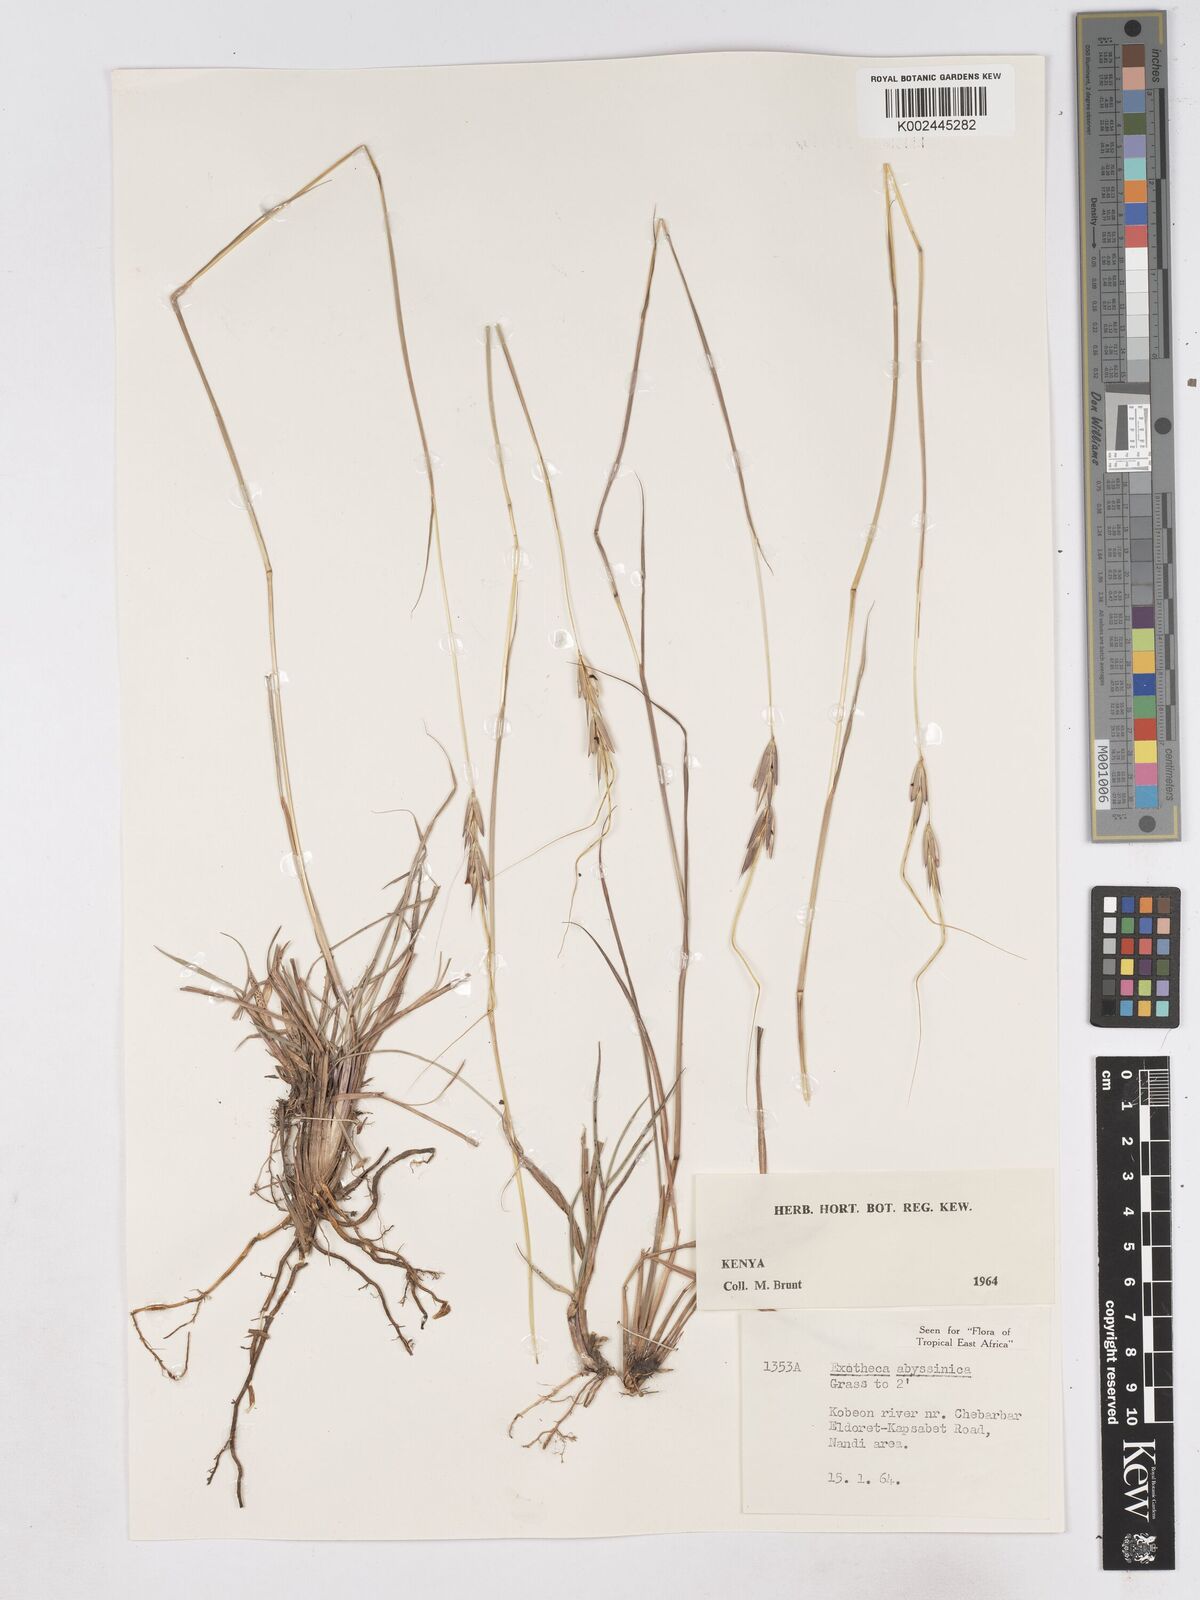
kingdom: Plantae
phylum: Tracheophyta
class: Liliopsida
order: Poales
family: Poaceae
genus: Exotheca
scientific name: Exotheca abyssinica
